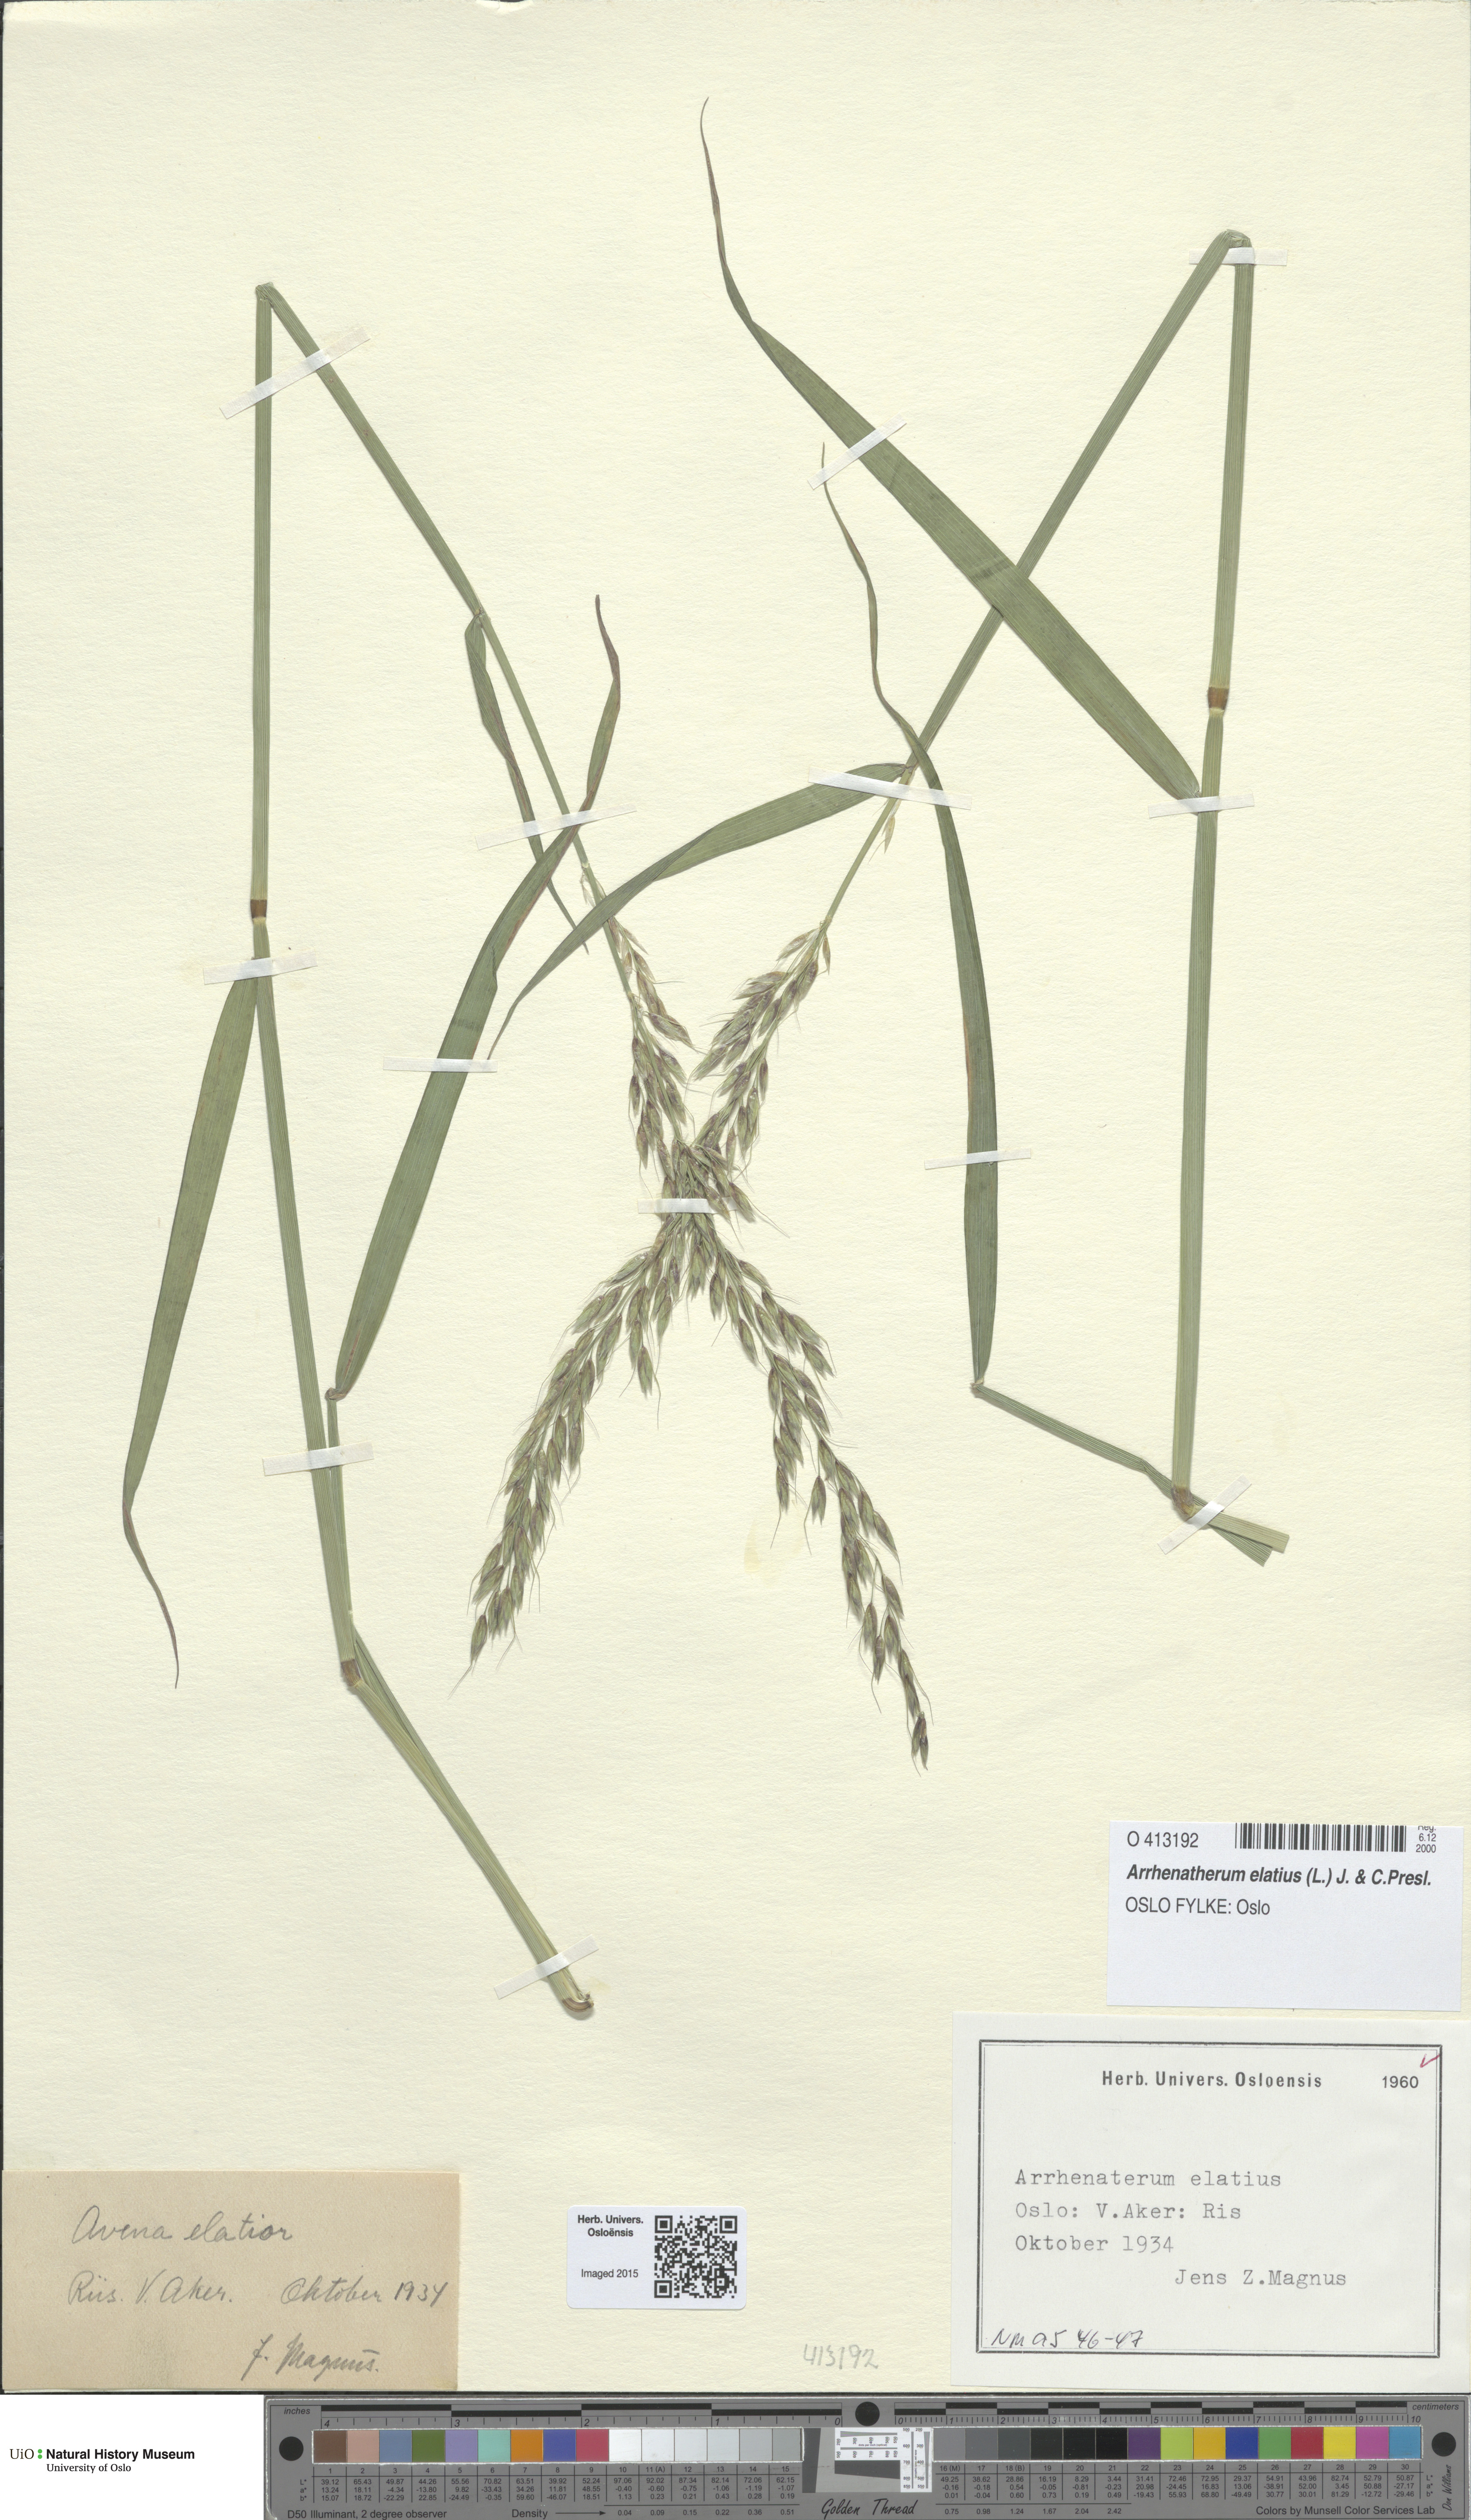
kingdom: Plantae
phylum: Tracheophyta
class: Liliopsida
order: Poales
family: Poaceae
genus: Arrhenatherum
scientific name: Arrhenatherum elatius
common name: Tall oatgrass
